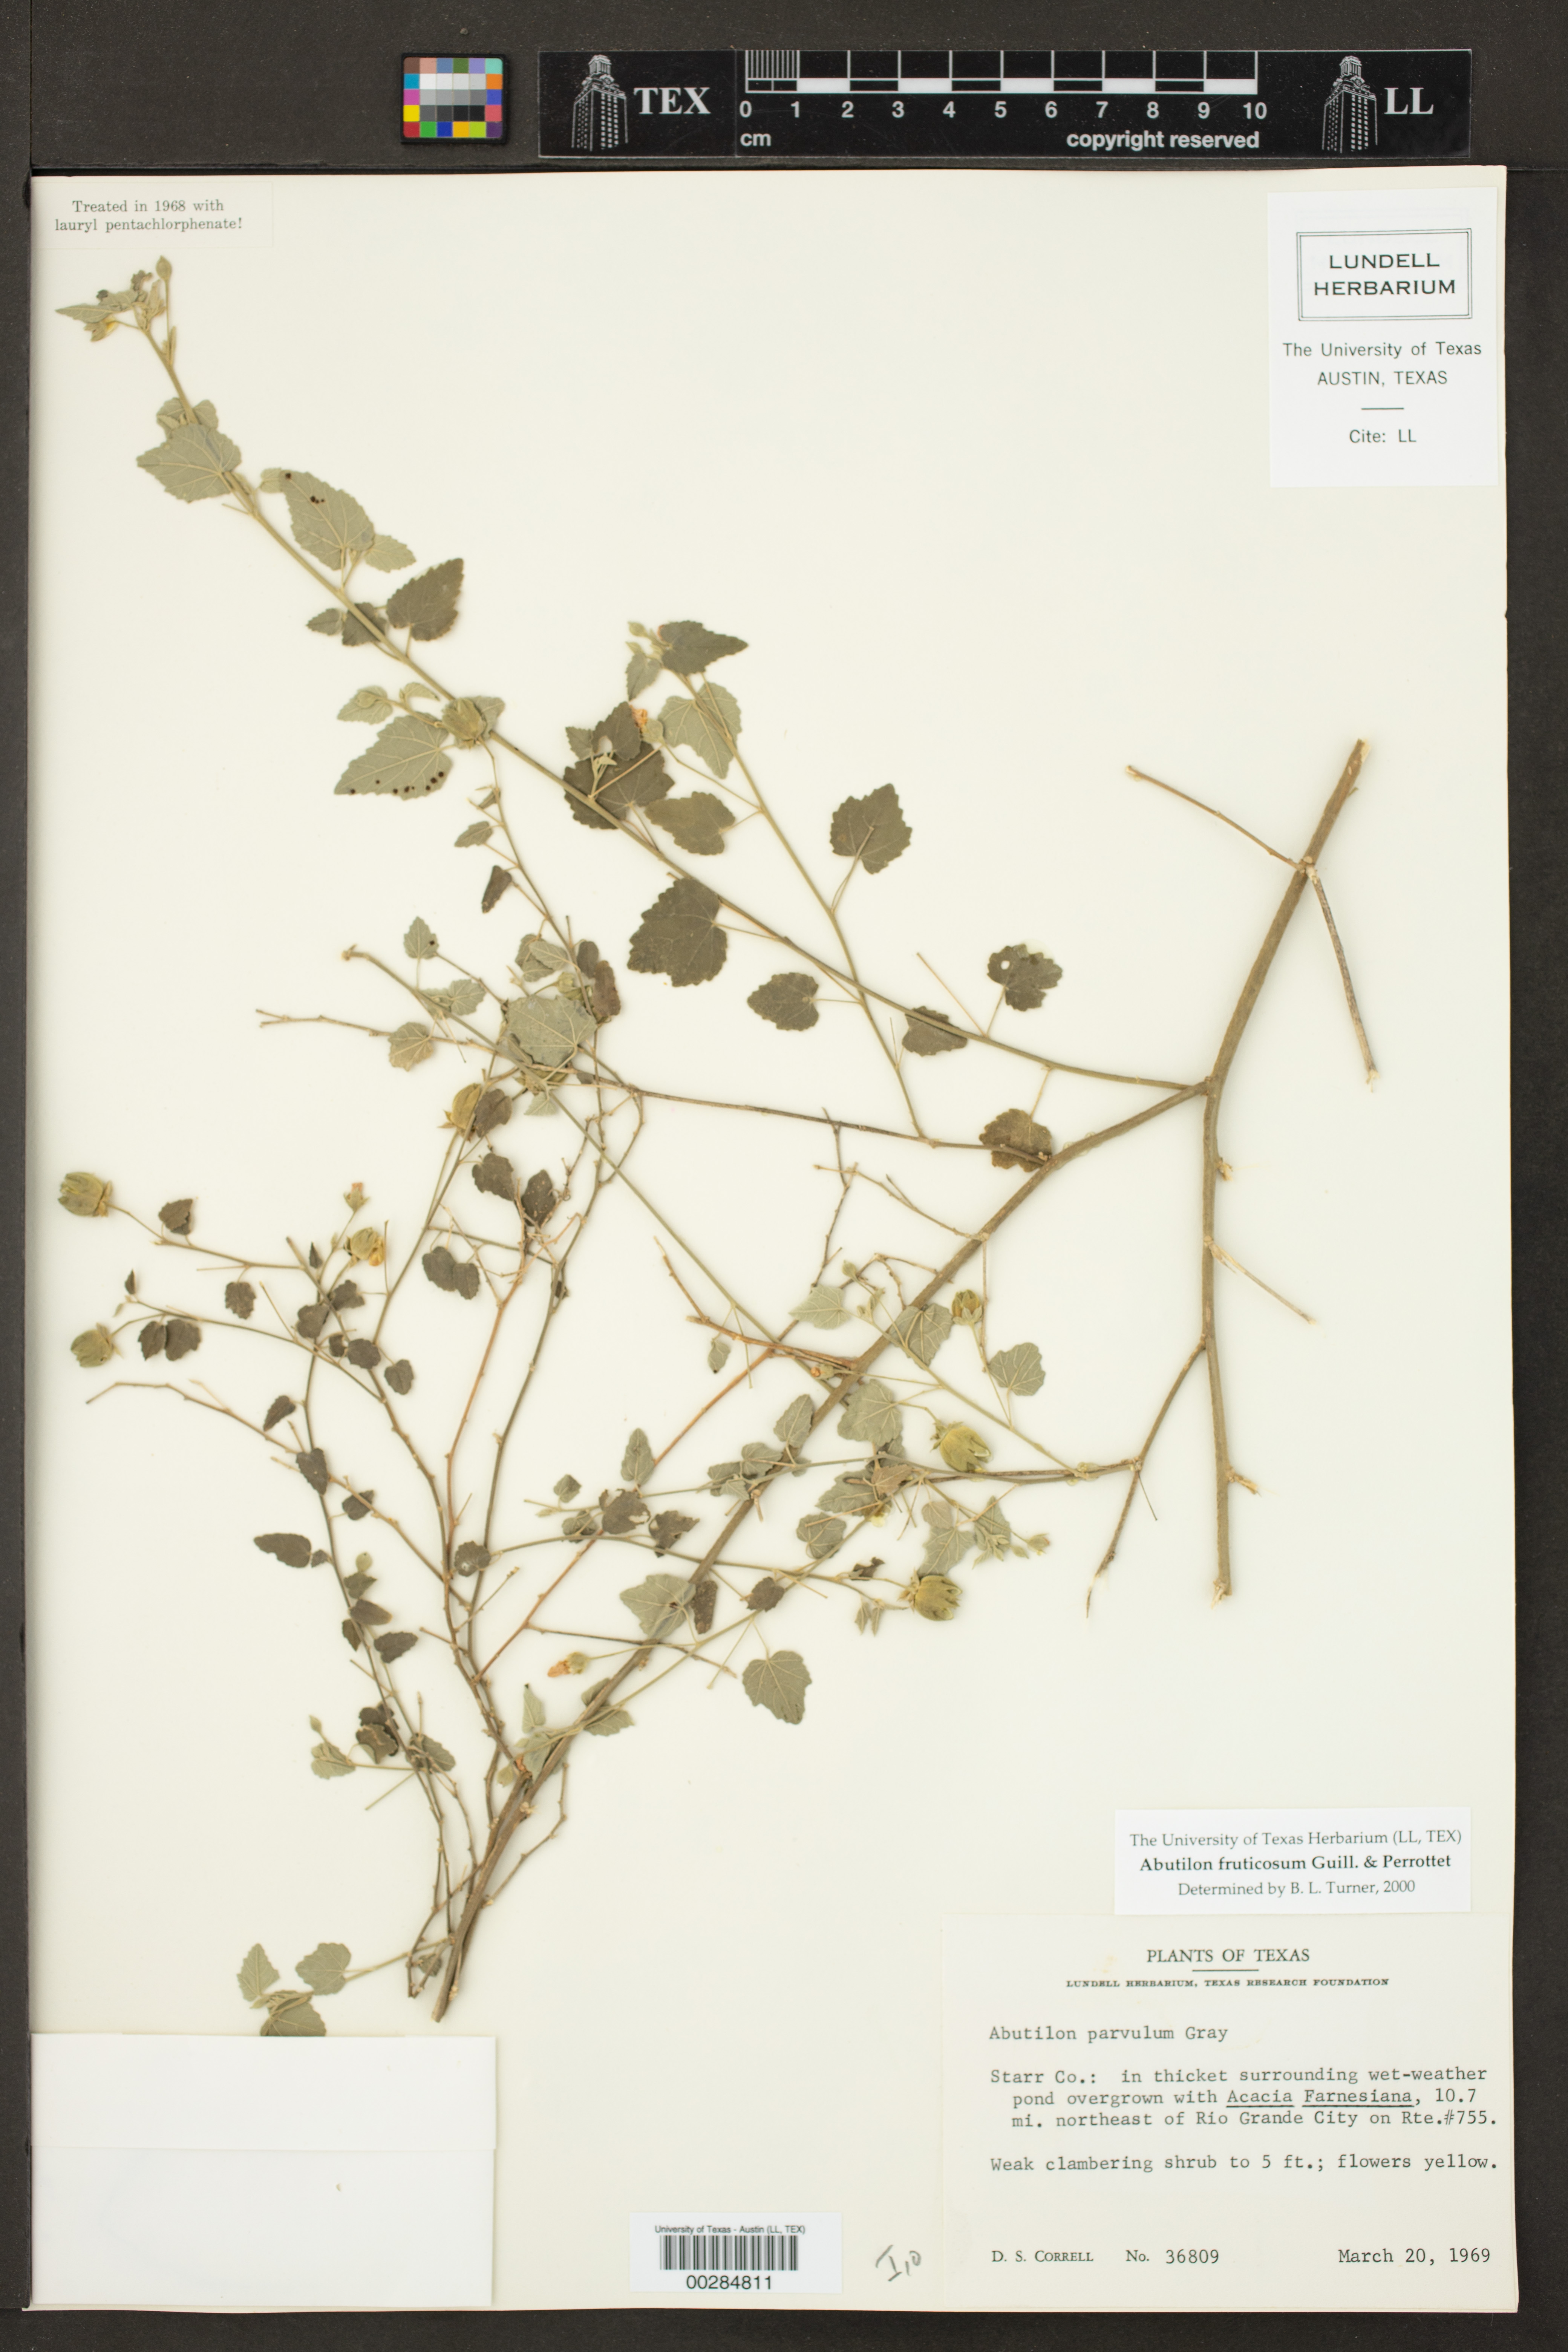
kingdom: Plantae
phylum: Tracheophyta
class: Magnoliopsida
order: Malvales
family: Malvaceae
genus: Abutilon
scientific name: Abutilon fruticosum
